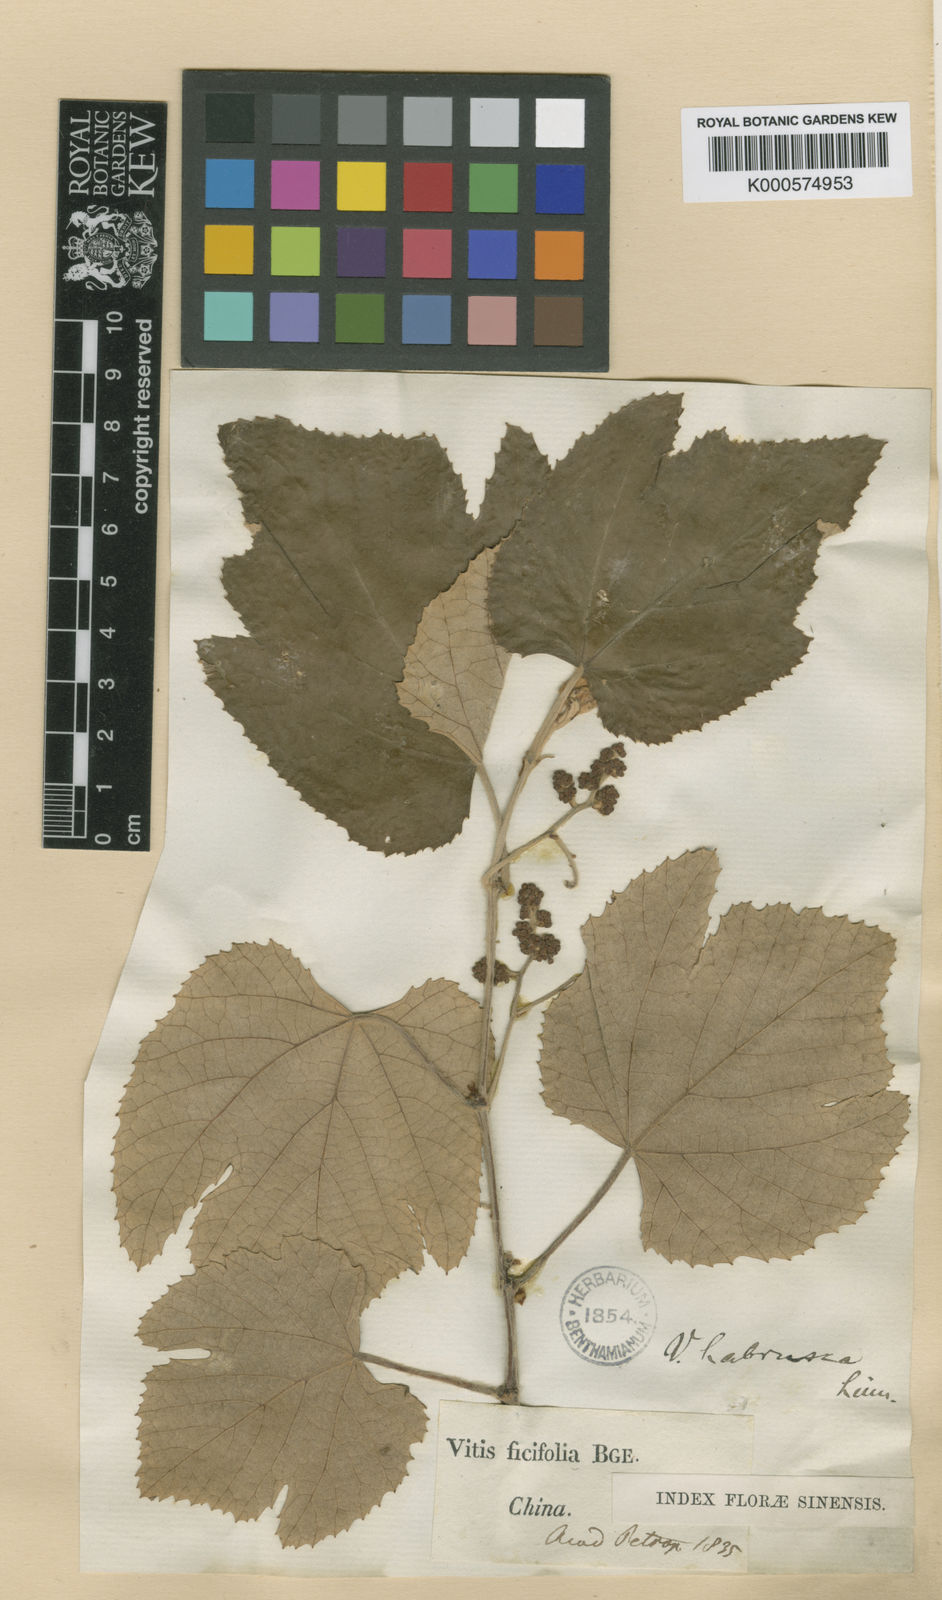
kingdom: Plantae
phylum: Tracheophyta
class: Magnoliopsida
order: Vitales
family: Vitaceae
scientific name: Vitaceae
